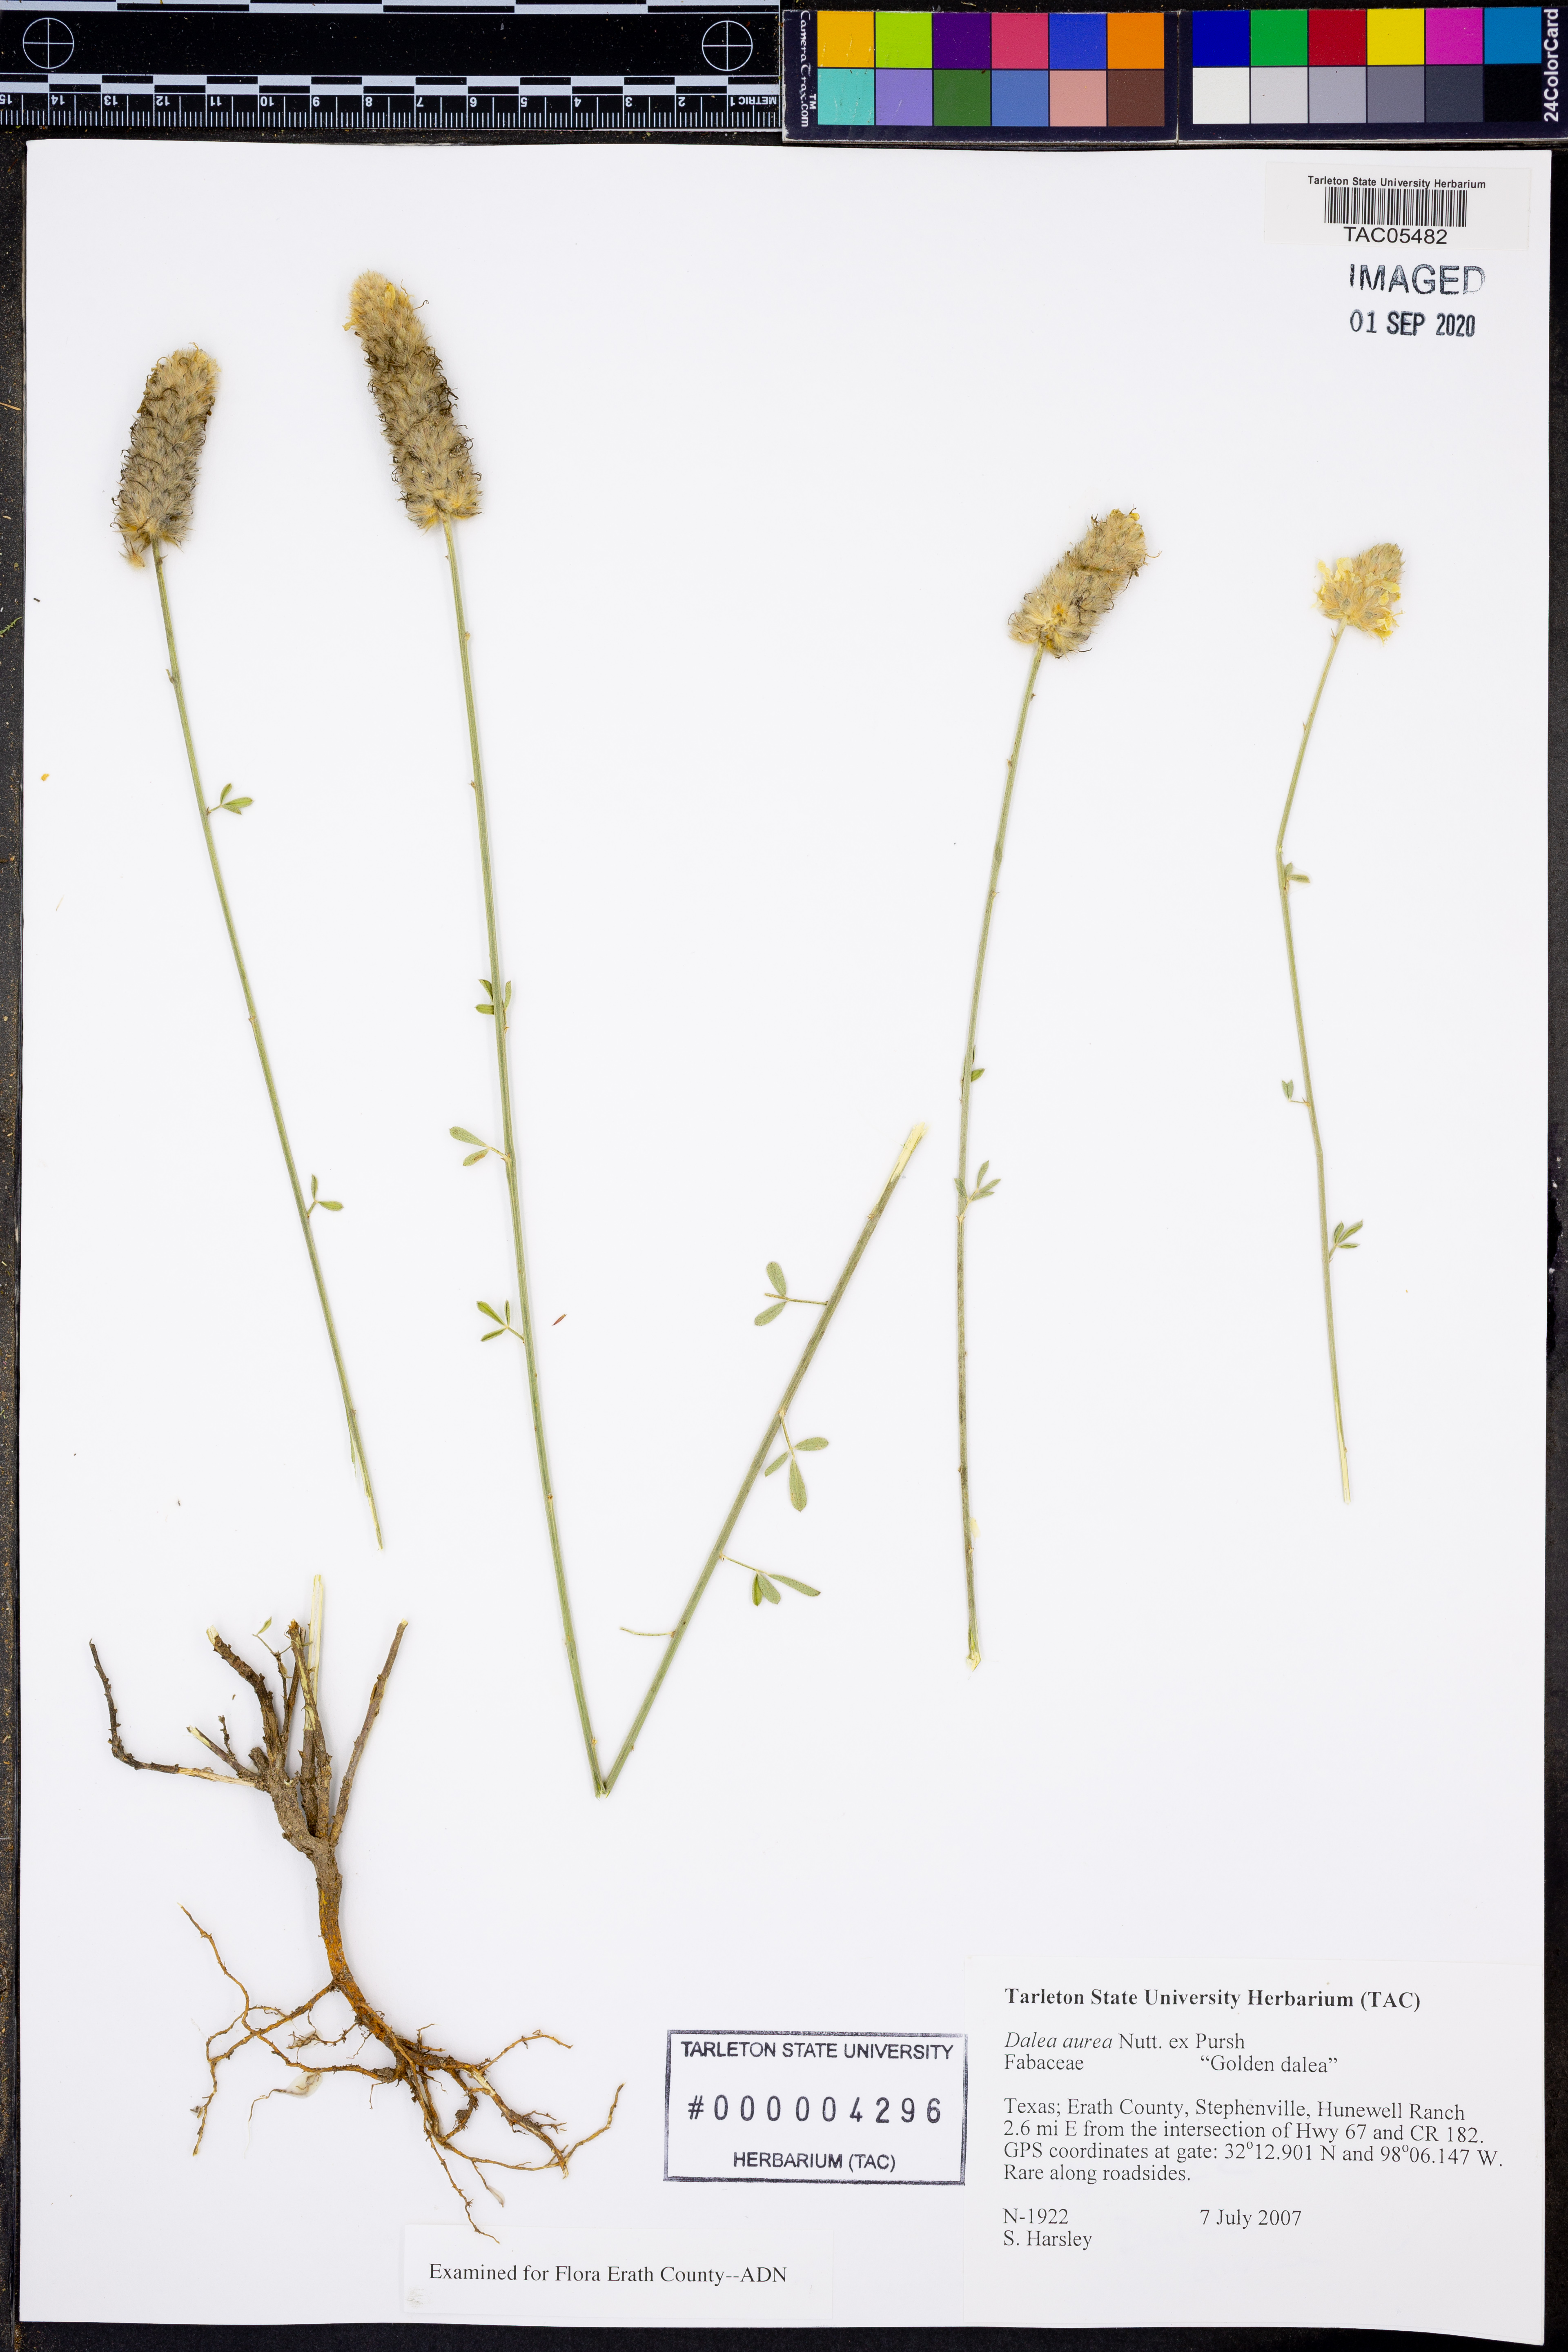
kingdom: Plantae
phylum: Tracheophyta
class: Magnoliopsida
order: Fabales
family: Fabaceae
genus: Dalea
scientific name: Dalea aurea
